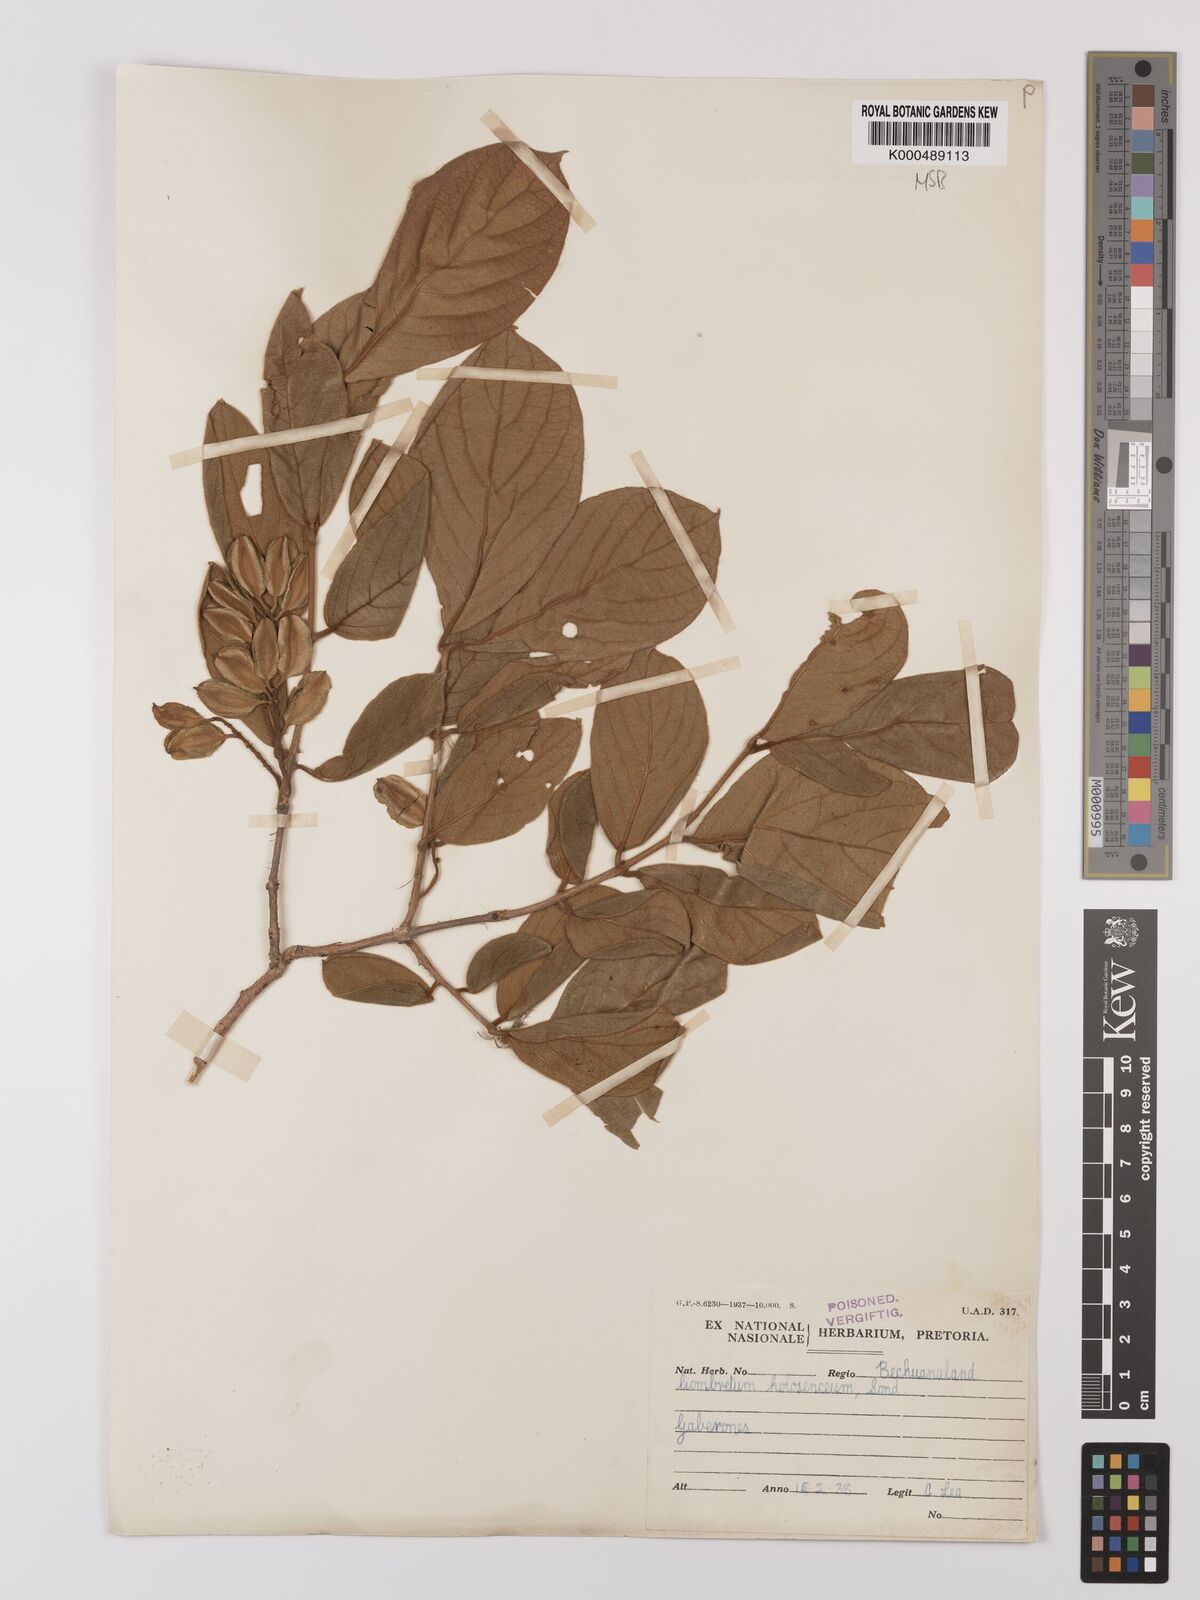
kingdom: Plantae
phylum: Tracheophyta
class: Magnoliopsida
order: Myrtales
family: Combretaceae
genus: Combretum
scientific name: Combretum molle
